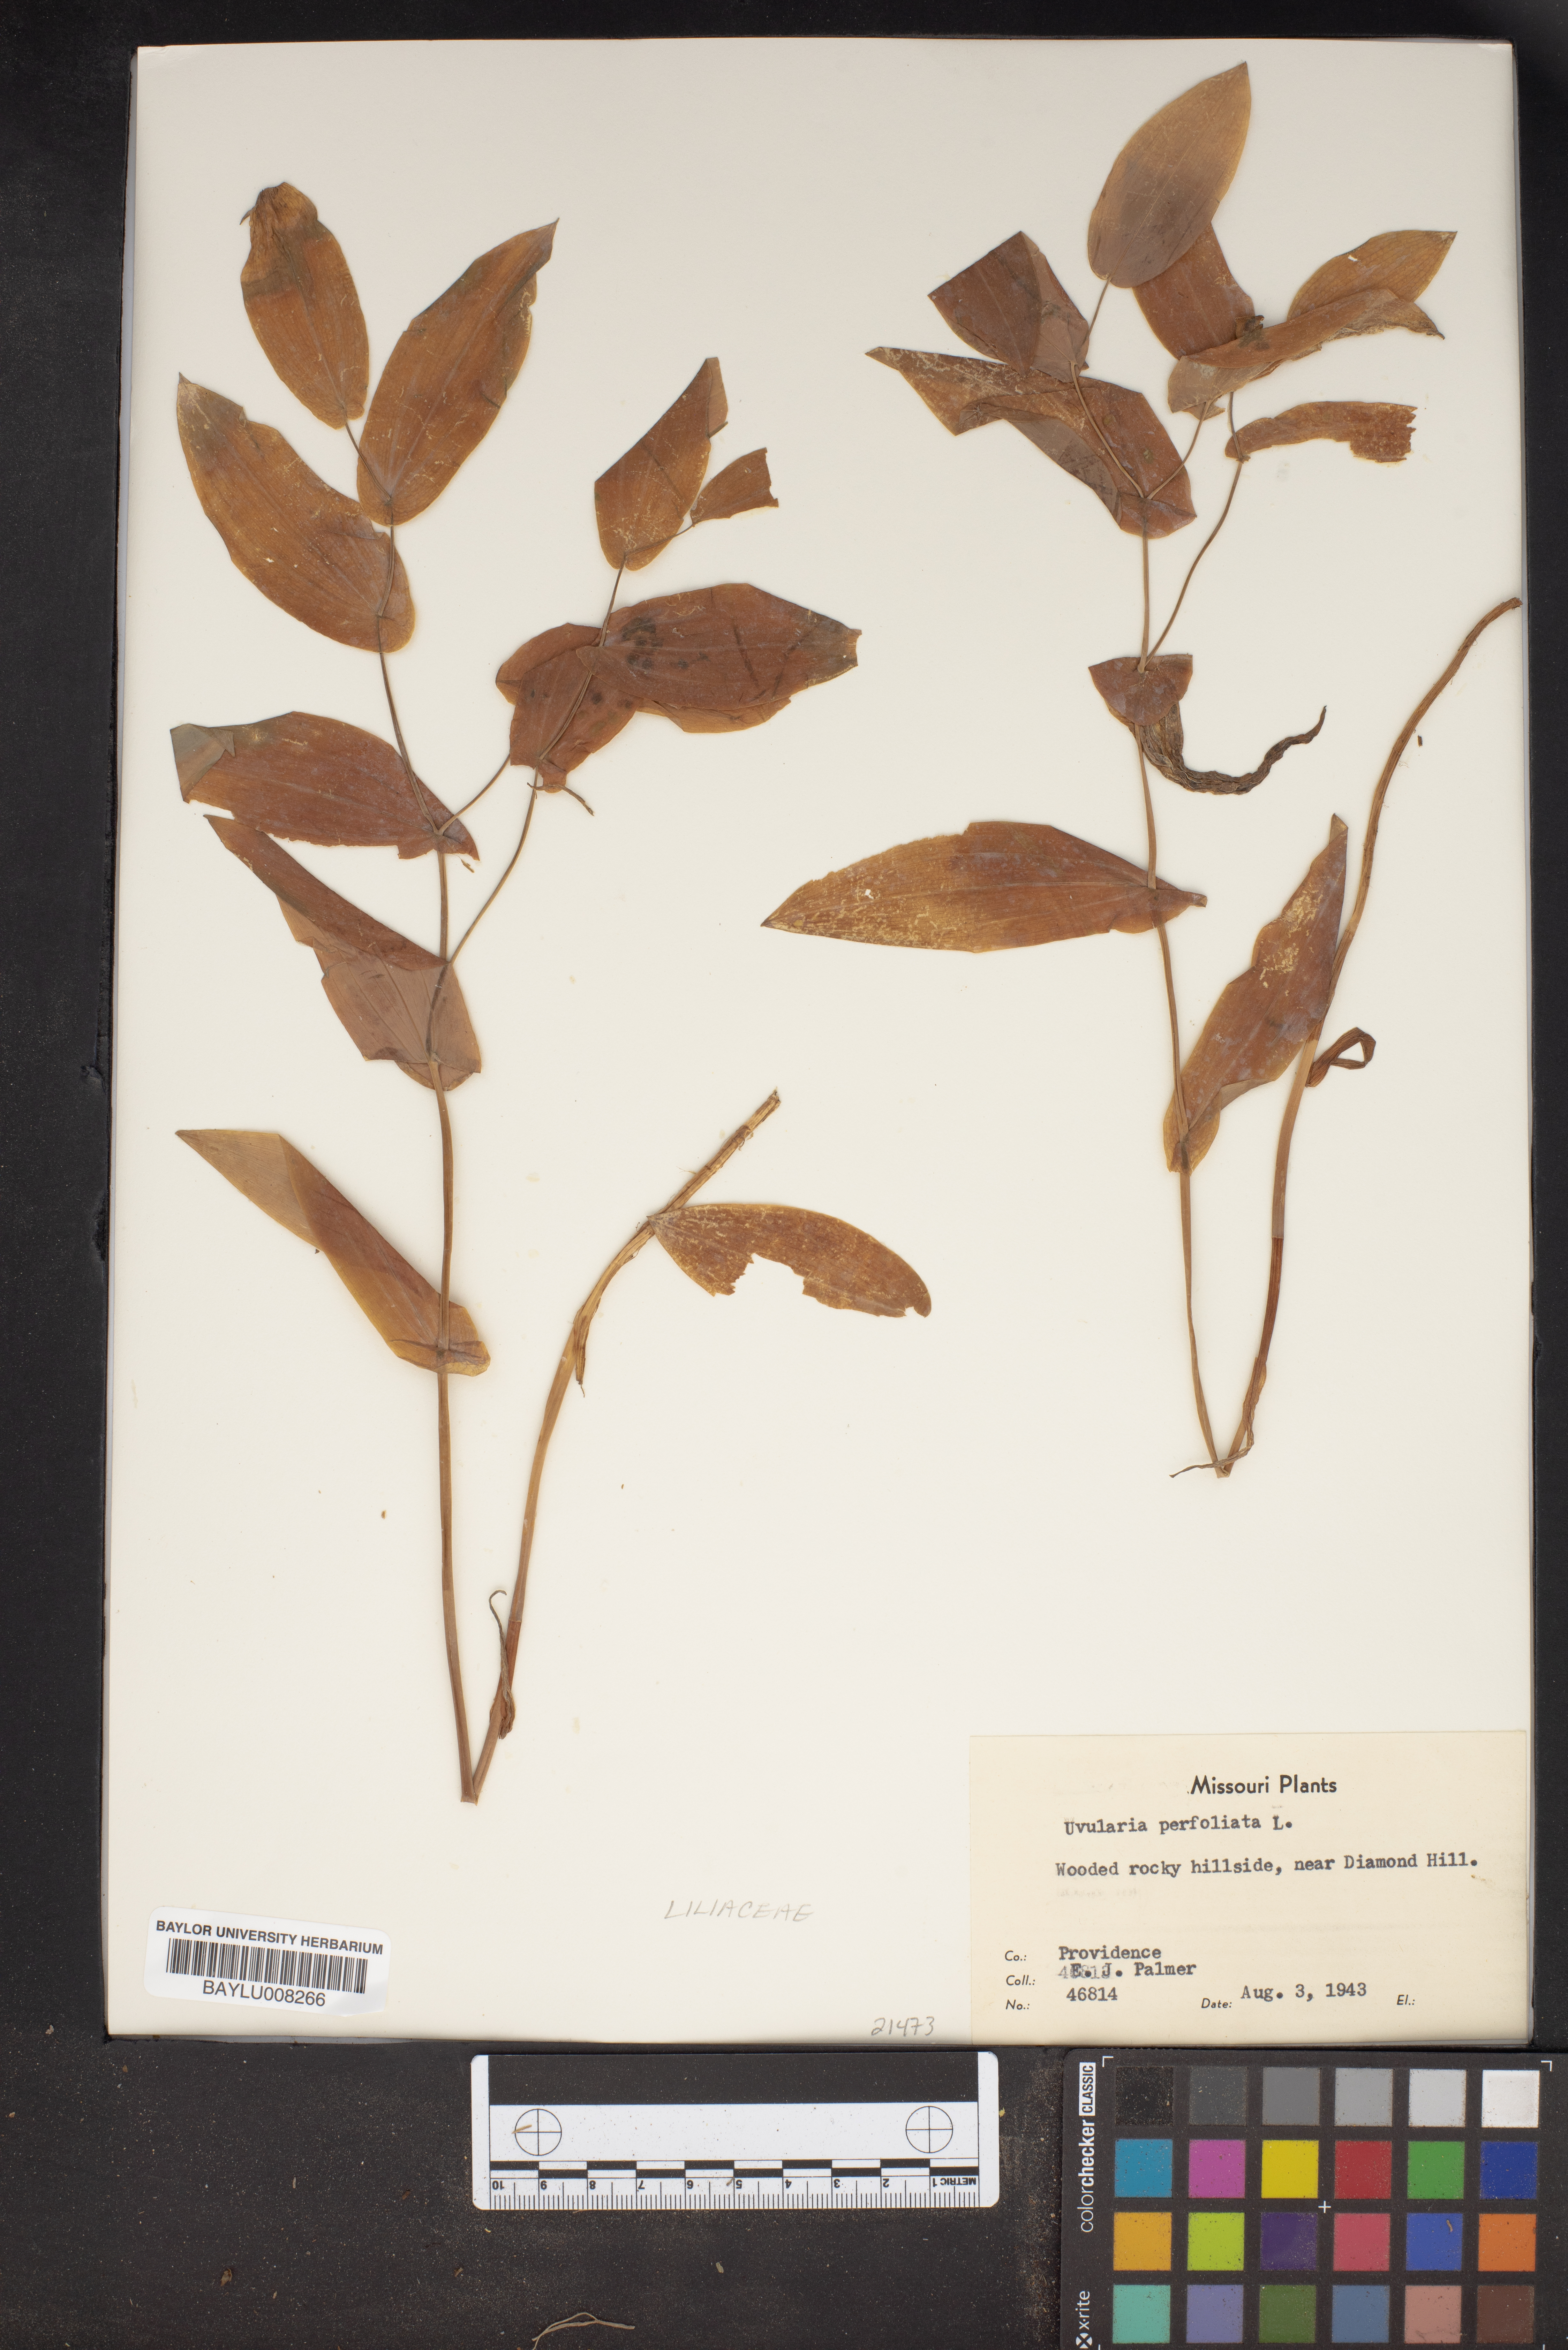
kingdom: Plantae
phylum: Tracheophyta
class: Liliopsida
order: Liliales
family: Colchicaceae
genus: Uvularia
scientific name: Uvularia perfoliata
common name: Perfoliate bellwort
